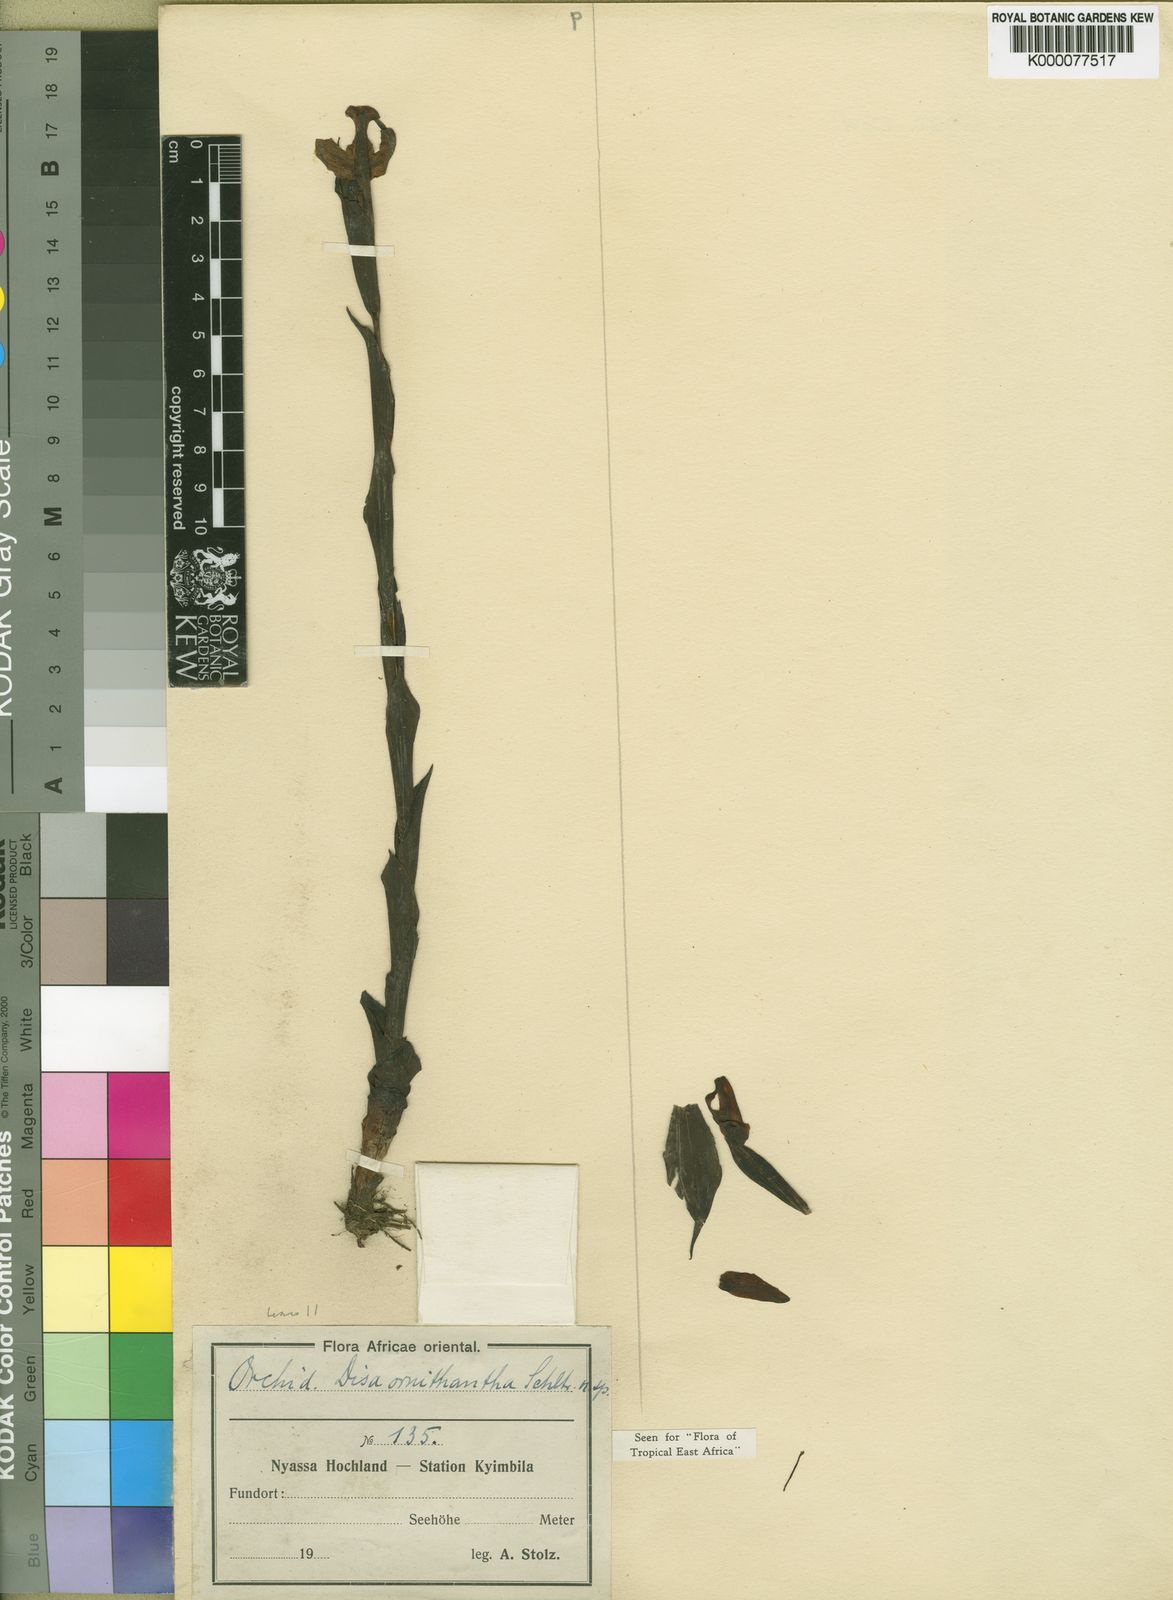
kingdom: Plantae
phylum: Tracheophyta
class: Liliopsida
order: Asparagales
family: Orchidaceae
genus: Disa
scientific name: Disa ornithantha
